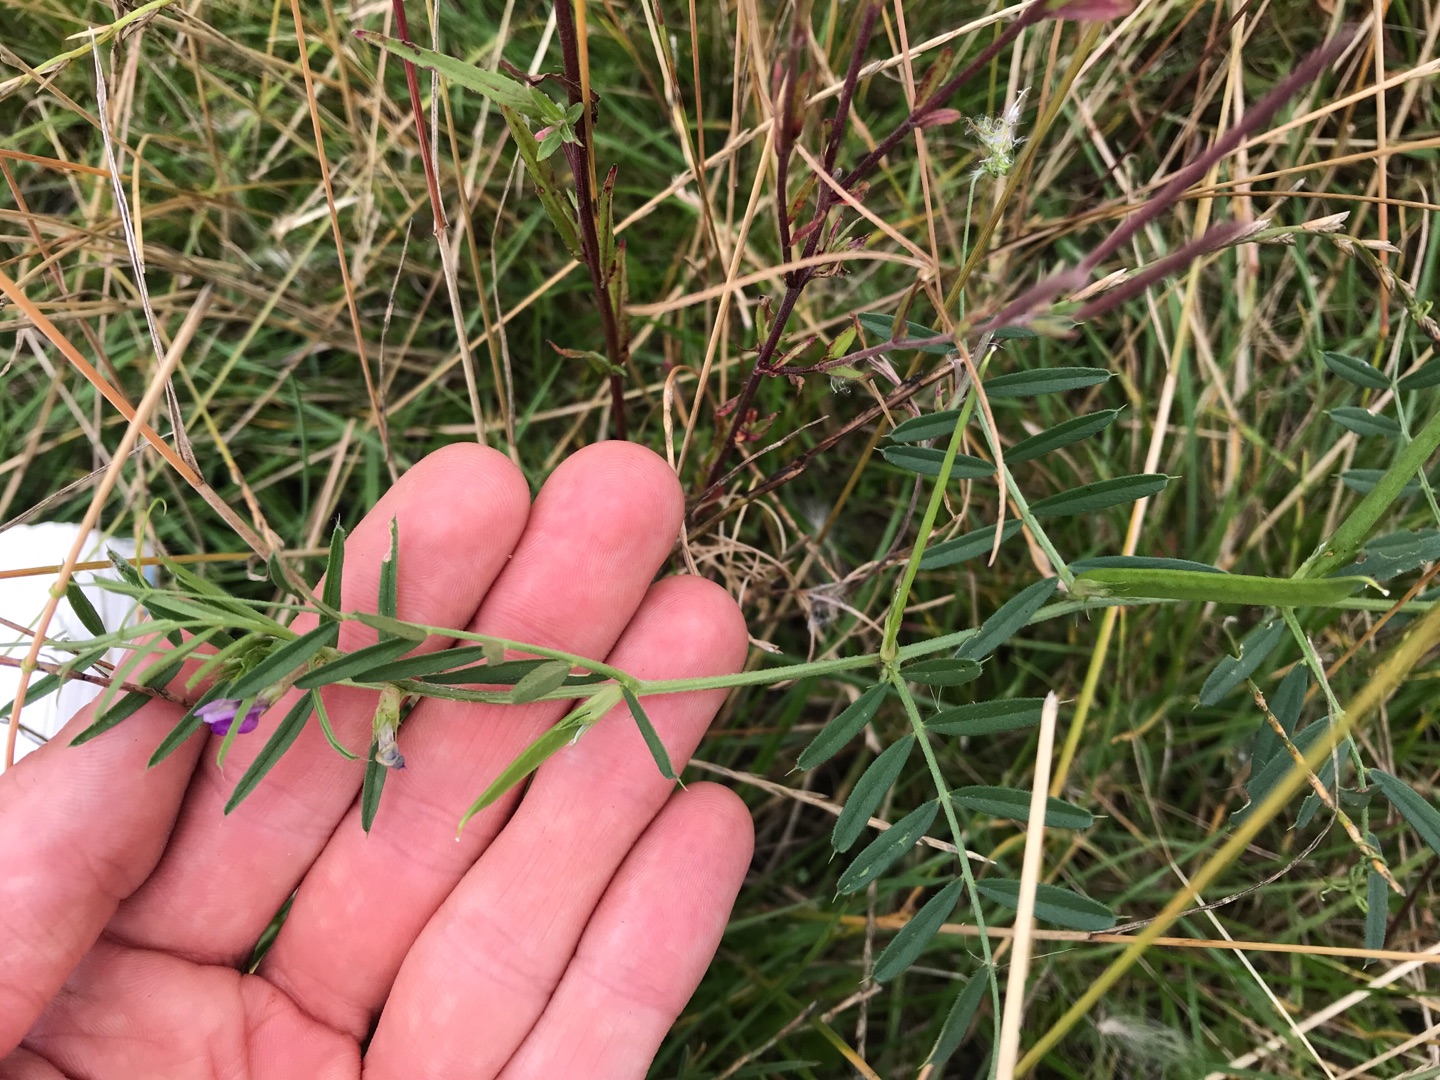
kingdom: Plantae
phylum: Tracheophyta
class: Magnoliopsida
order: Fabales
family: Fabaceae
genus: Vicia
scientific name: Vicia sativa
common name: Smalbladet vikke
